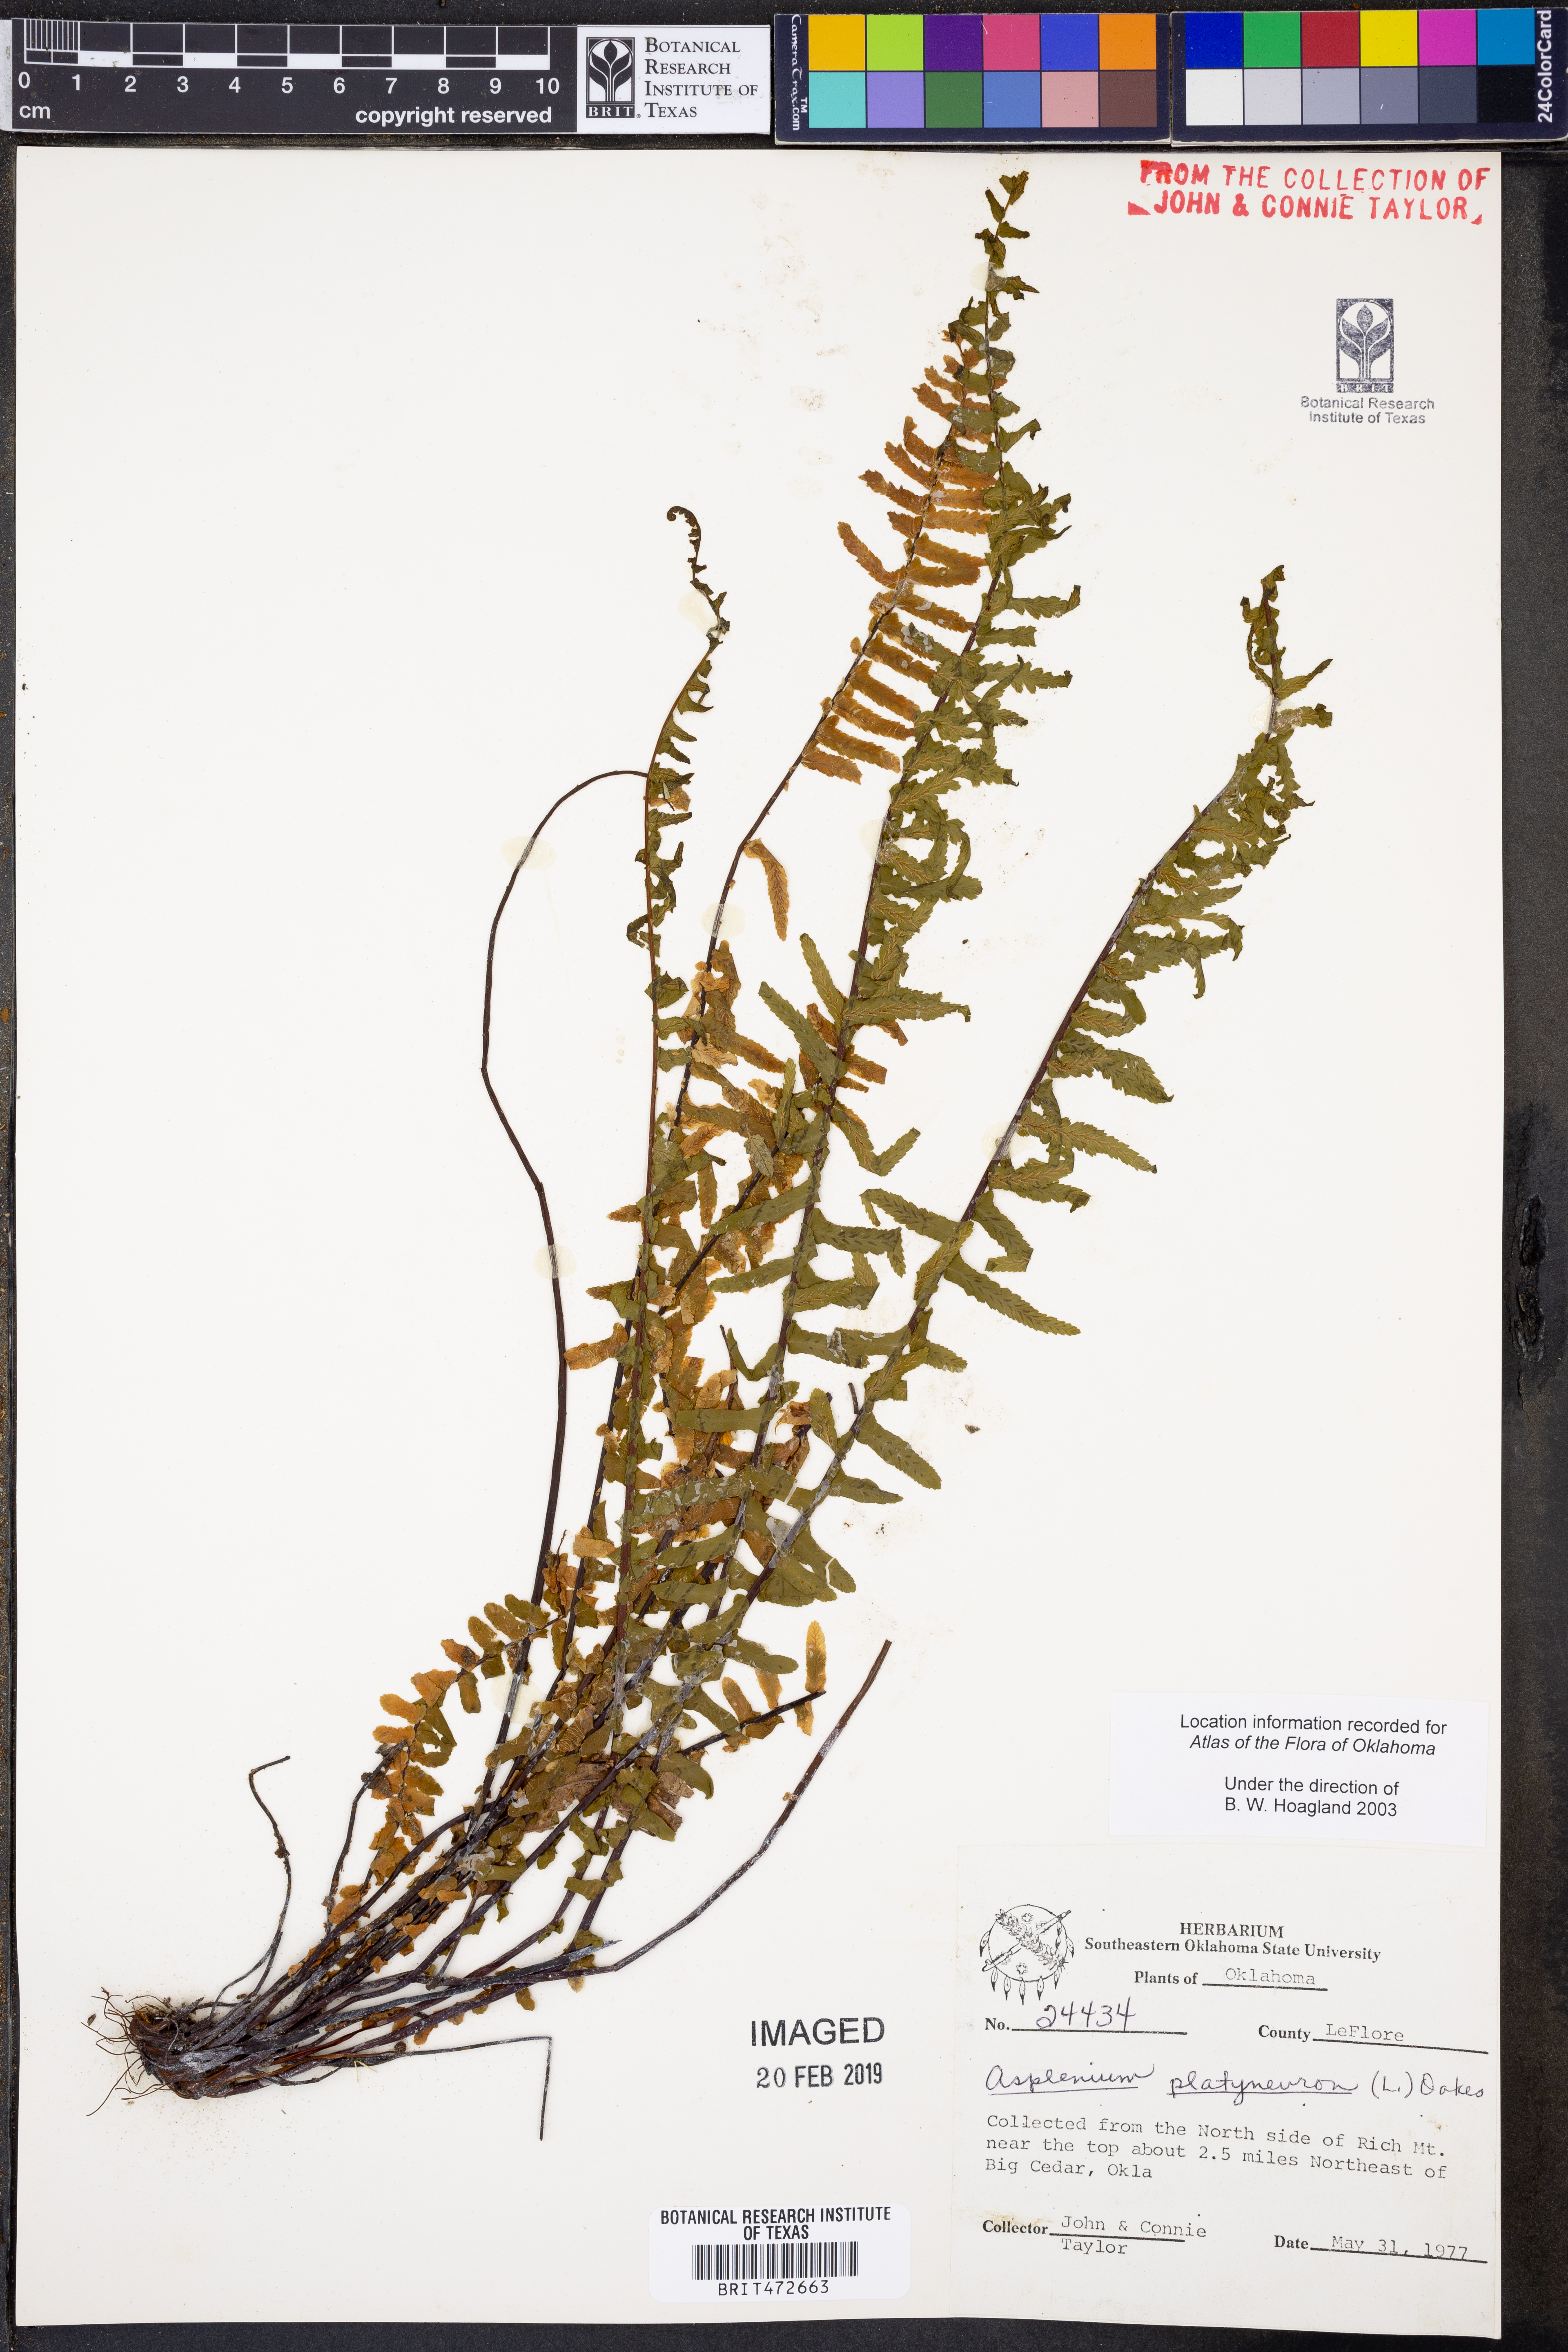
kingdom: Plantae
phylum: Tracheophyta
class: Polypodiopsida
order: Polypodiales
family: Aspleniaceae
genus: Asplenium
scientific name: Asplenium platyneuron
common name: Ebony spleenwort
